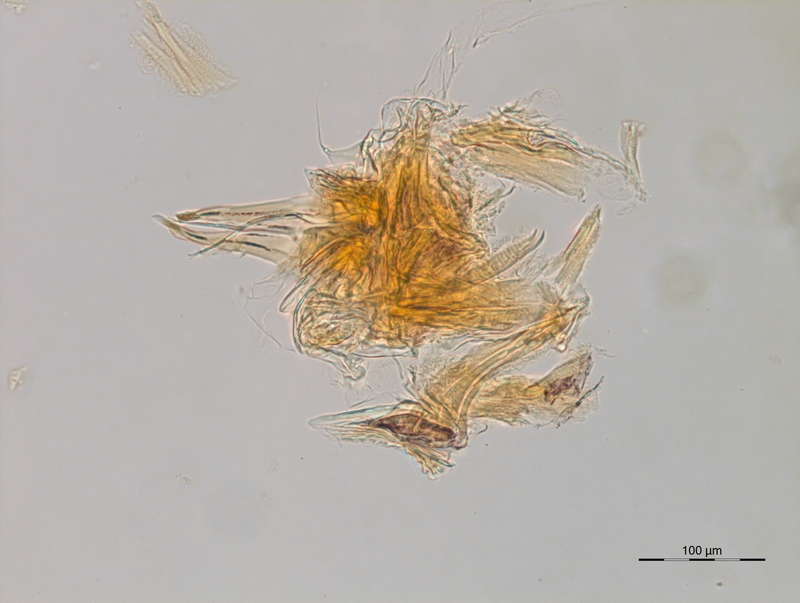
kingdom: Animalia
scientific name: Animalia
